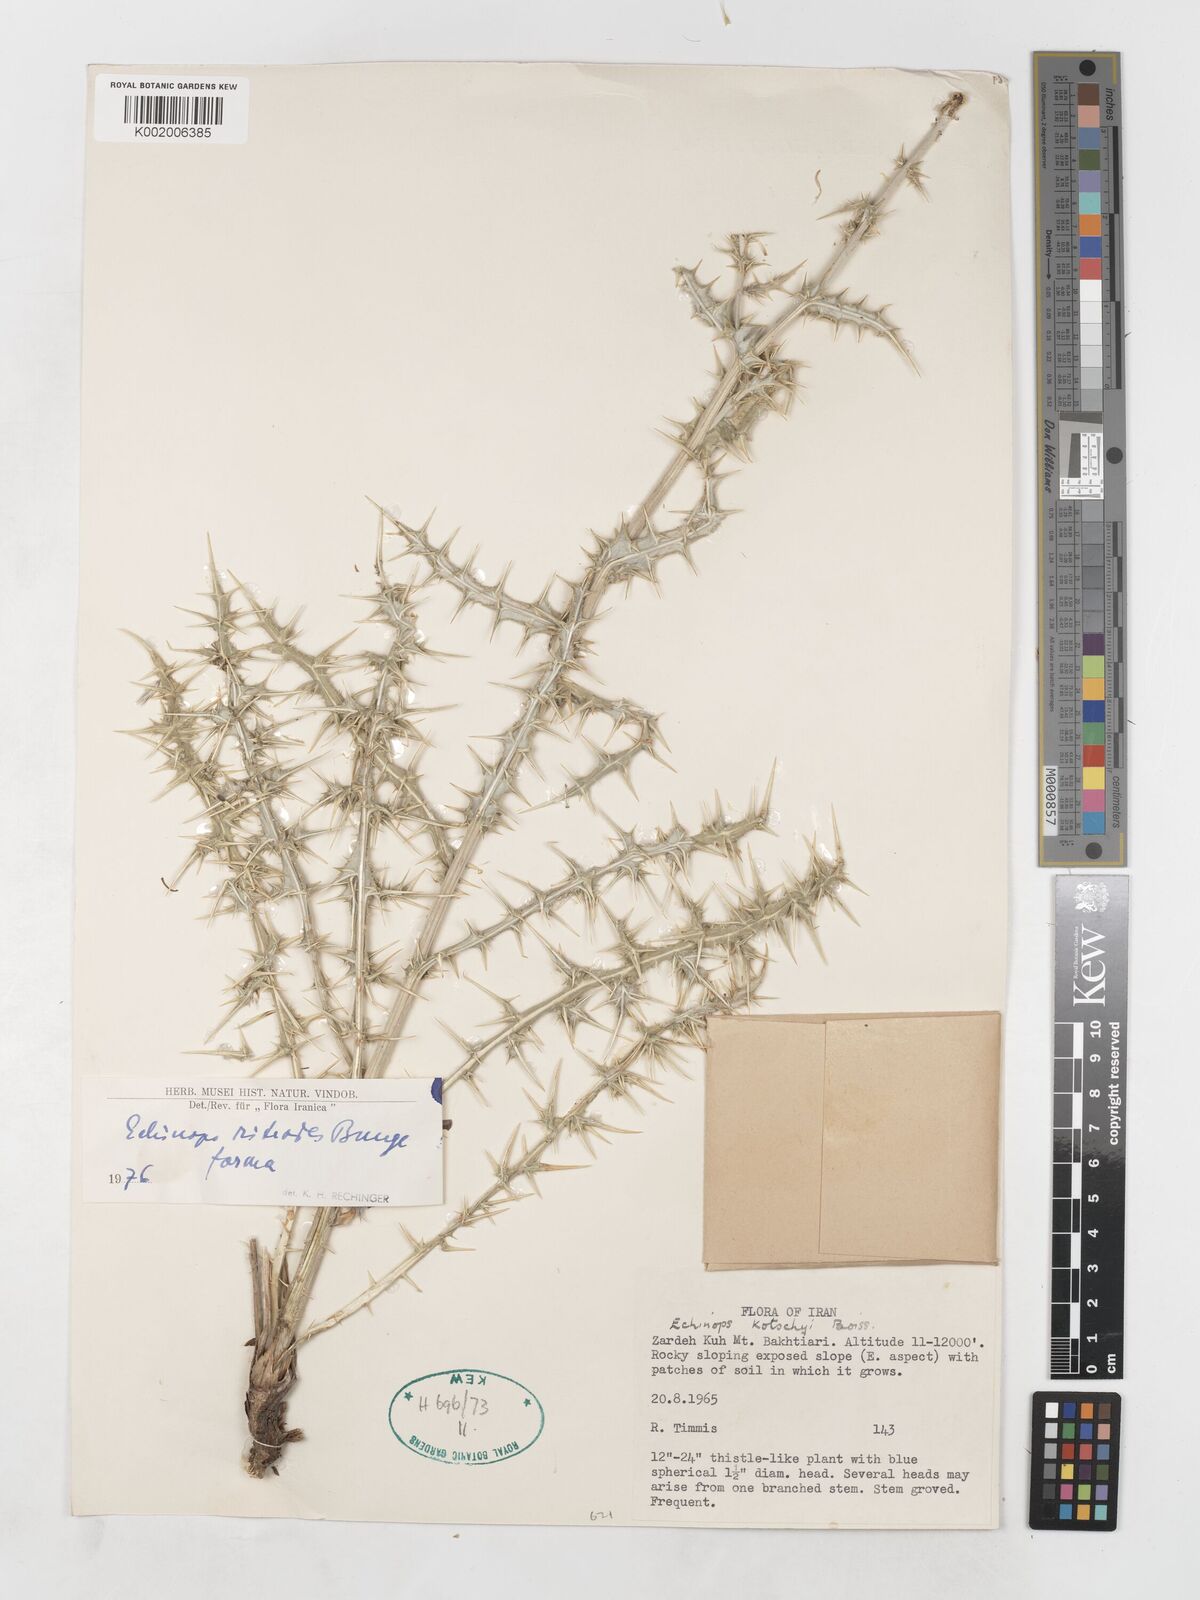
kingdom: Plantae
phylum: Tracheophyta
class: Magnoliopsida
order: Asterales
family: Asteraceae
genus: Echinops
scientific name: Echinops ritrodes
